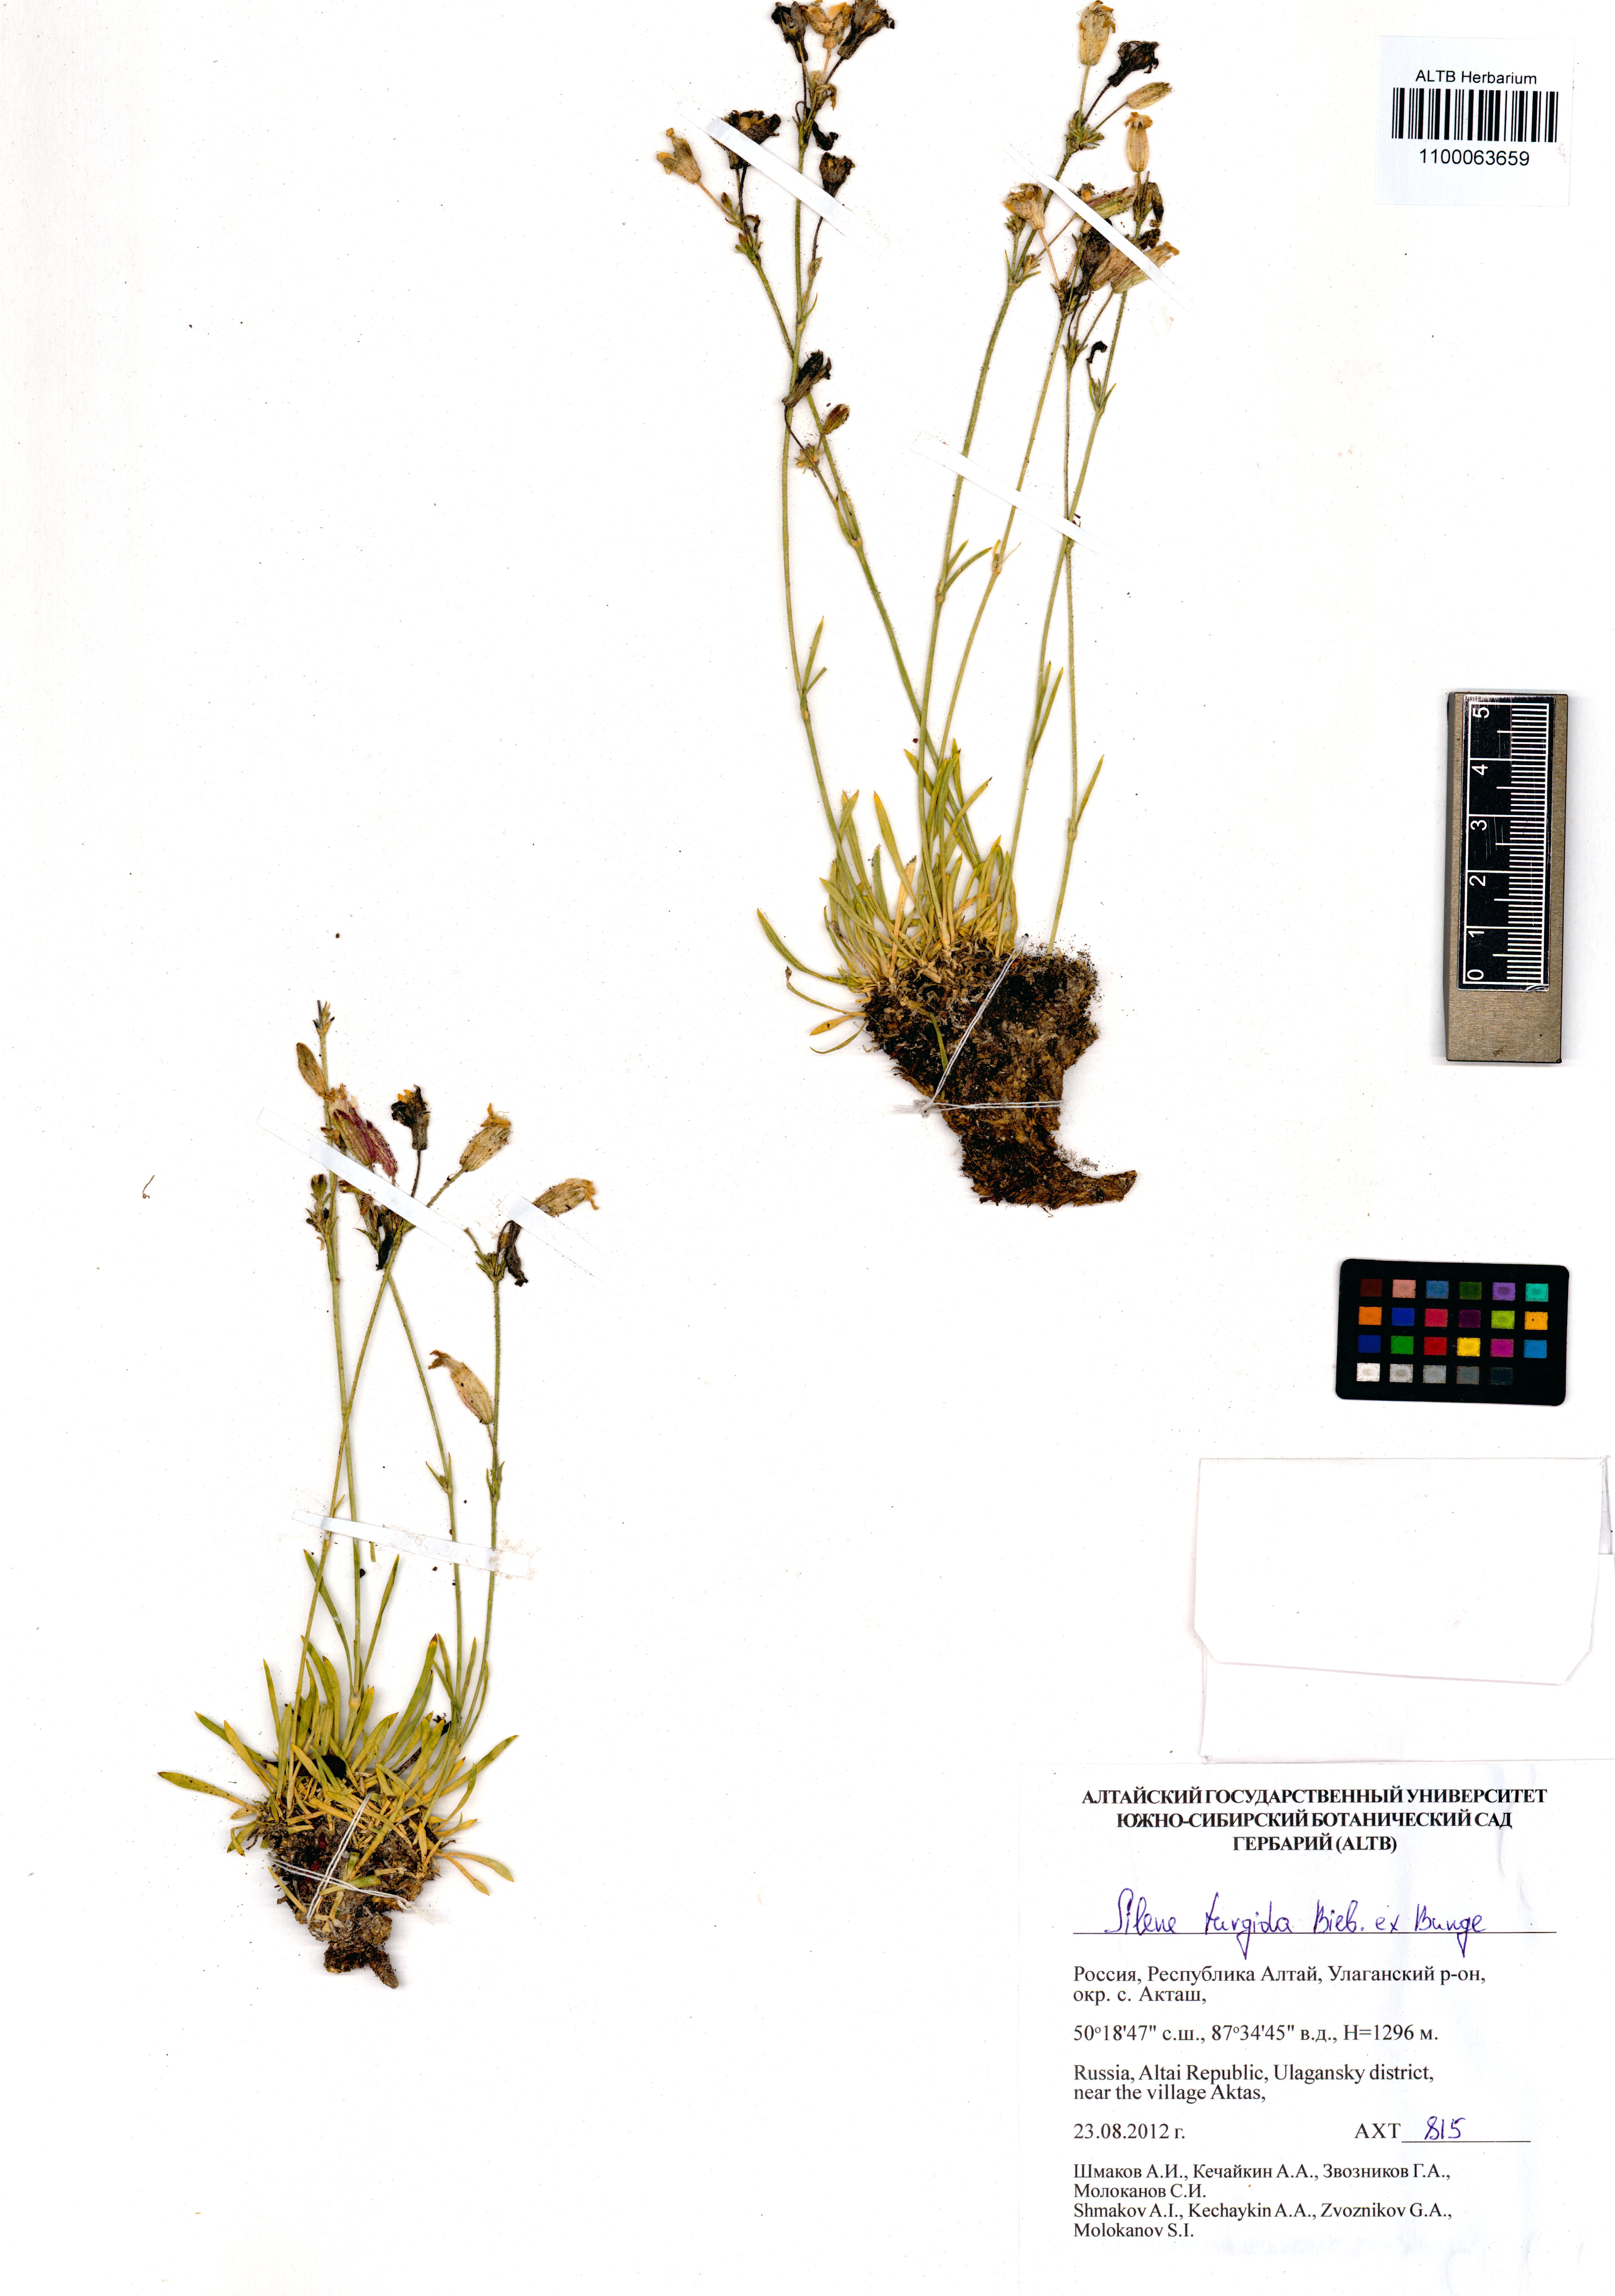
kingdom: Plantae
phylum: Tracheophyta
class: Magnoliopsida
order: Caryophyllales
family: Caryophyllaceae
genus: Silene
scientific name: Silene turgida
